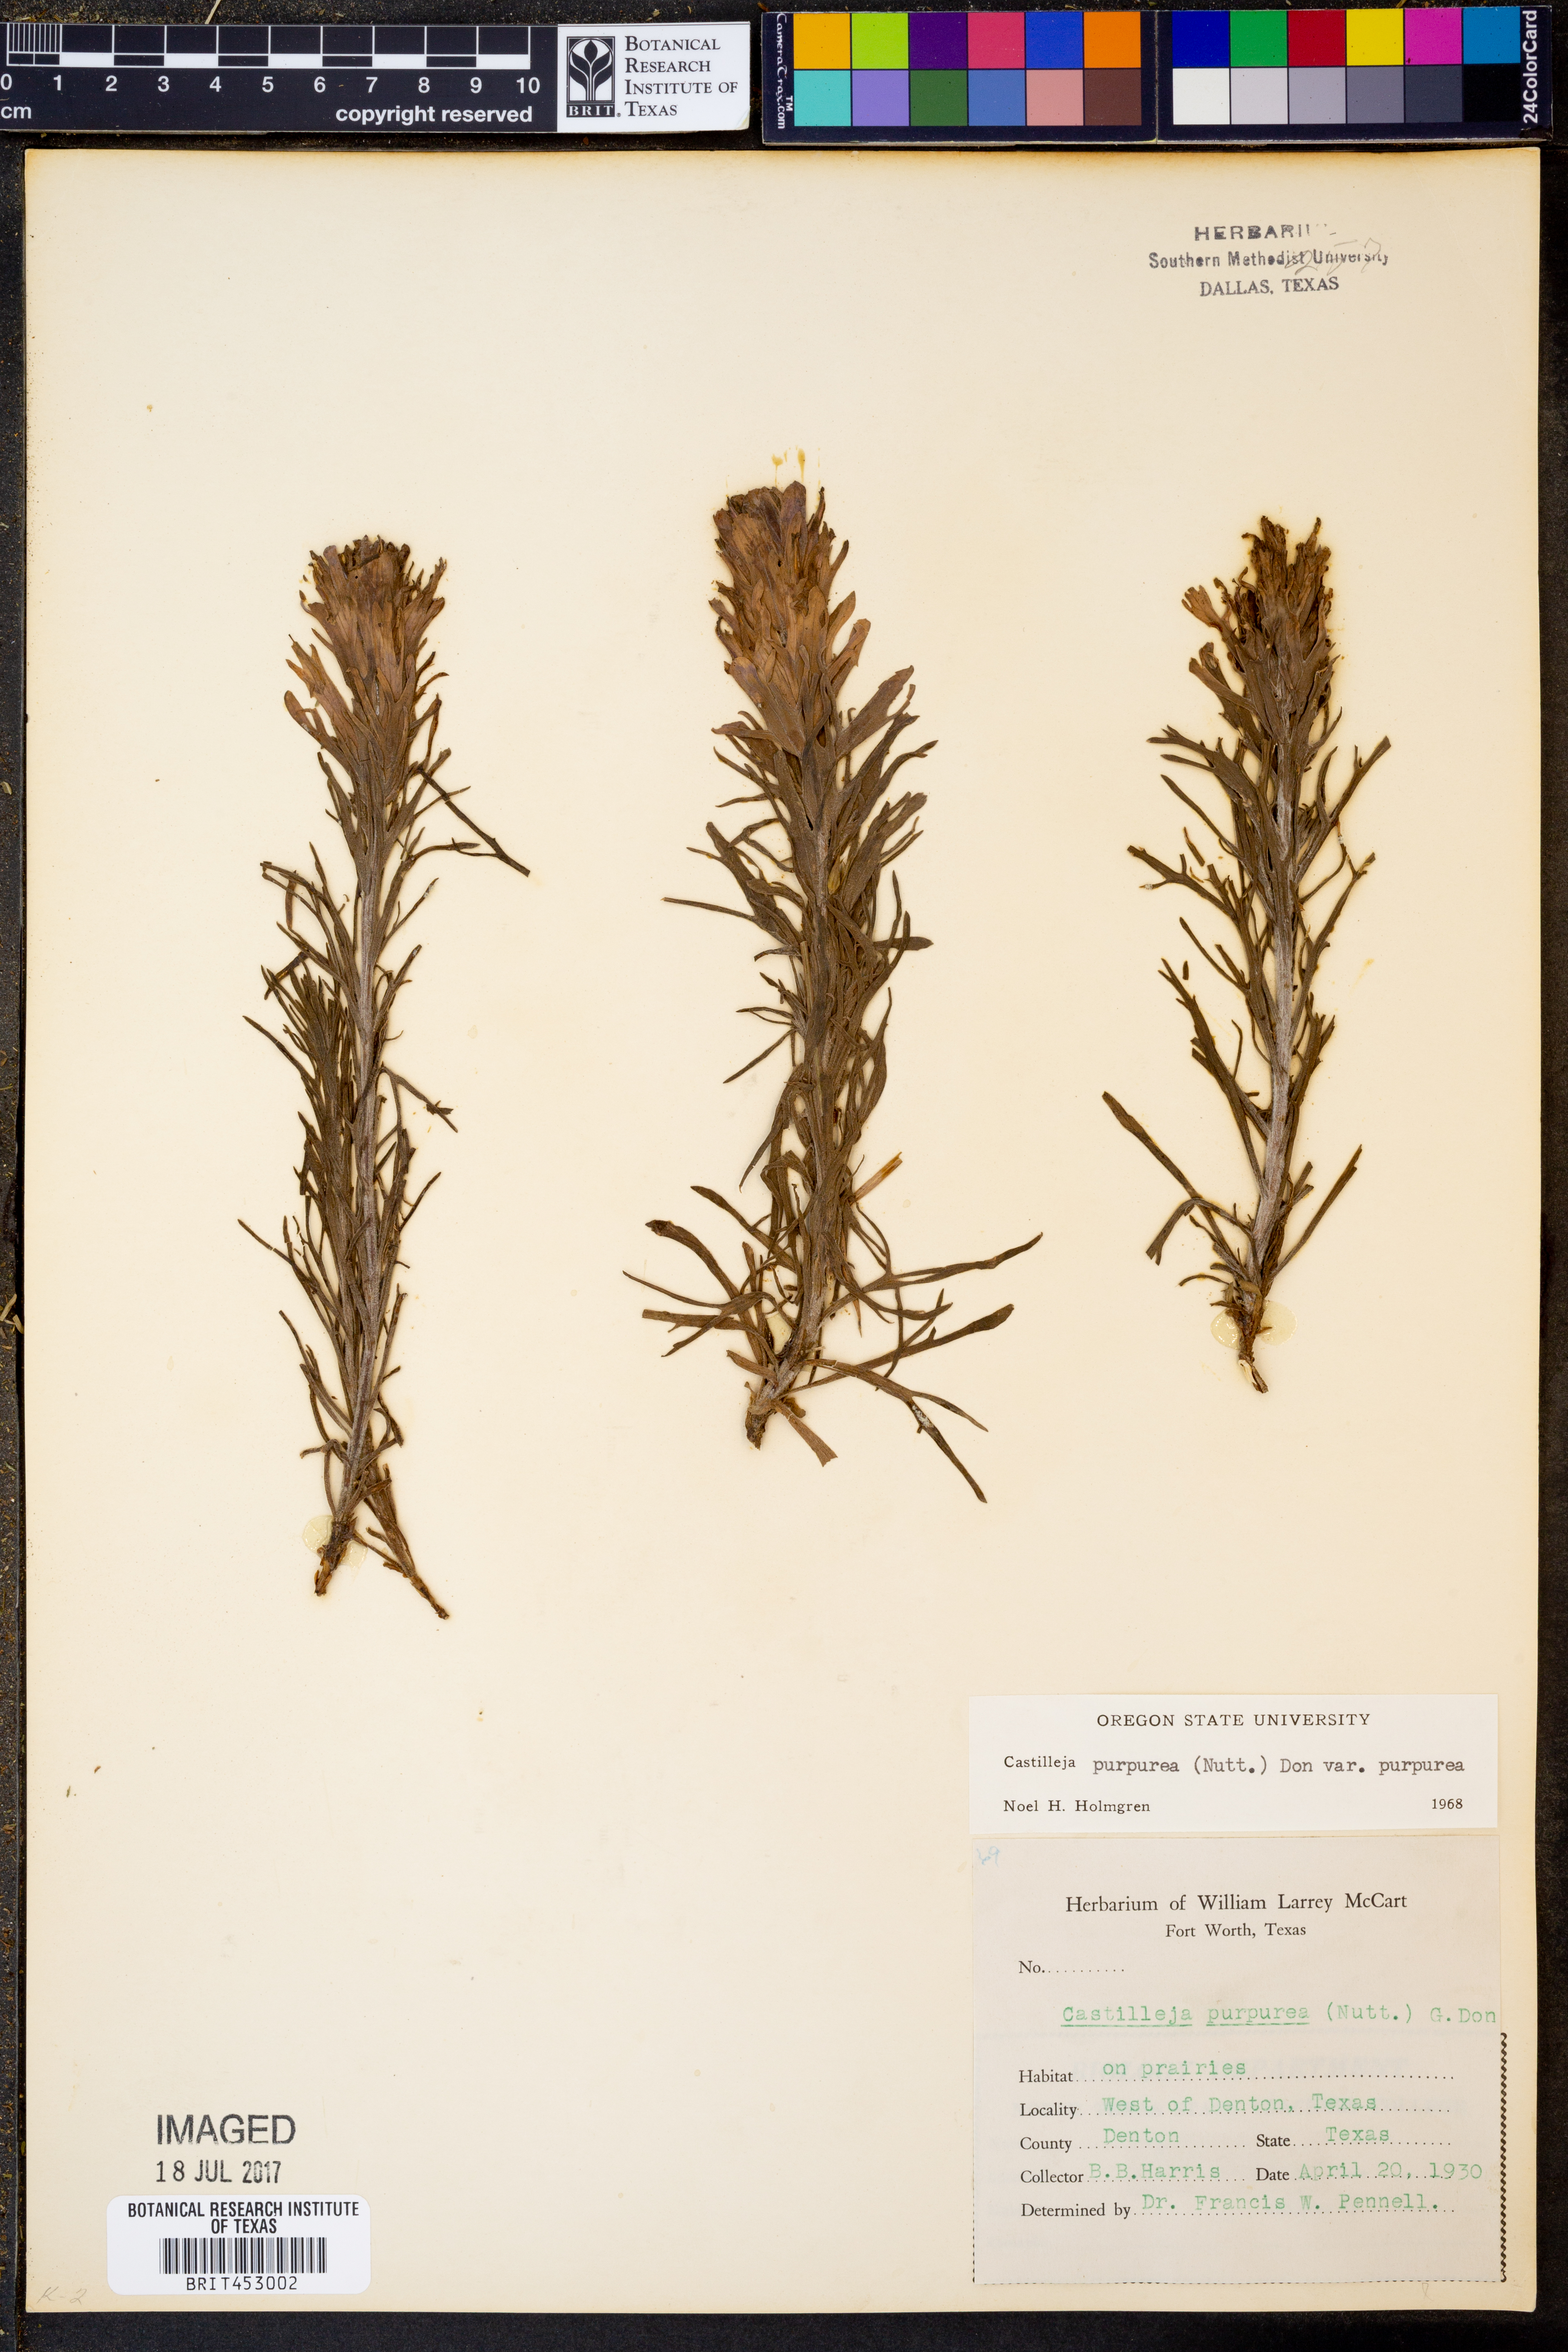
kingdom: Plantae
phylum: Tracheophyta
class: Magnoliopsida
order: Lamiales
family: Orobanchaceae
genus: Castilleja
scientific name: Castilleja purpurea
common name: Plains paintbrush
